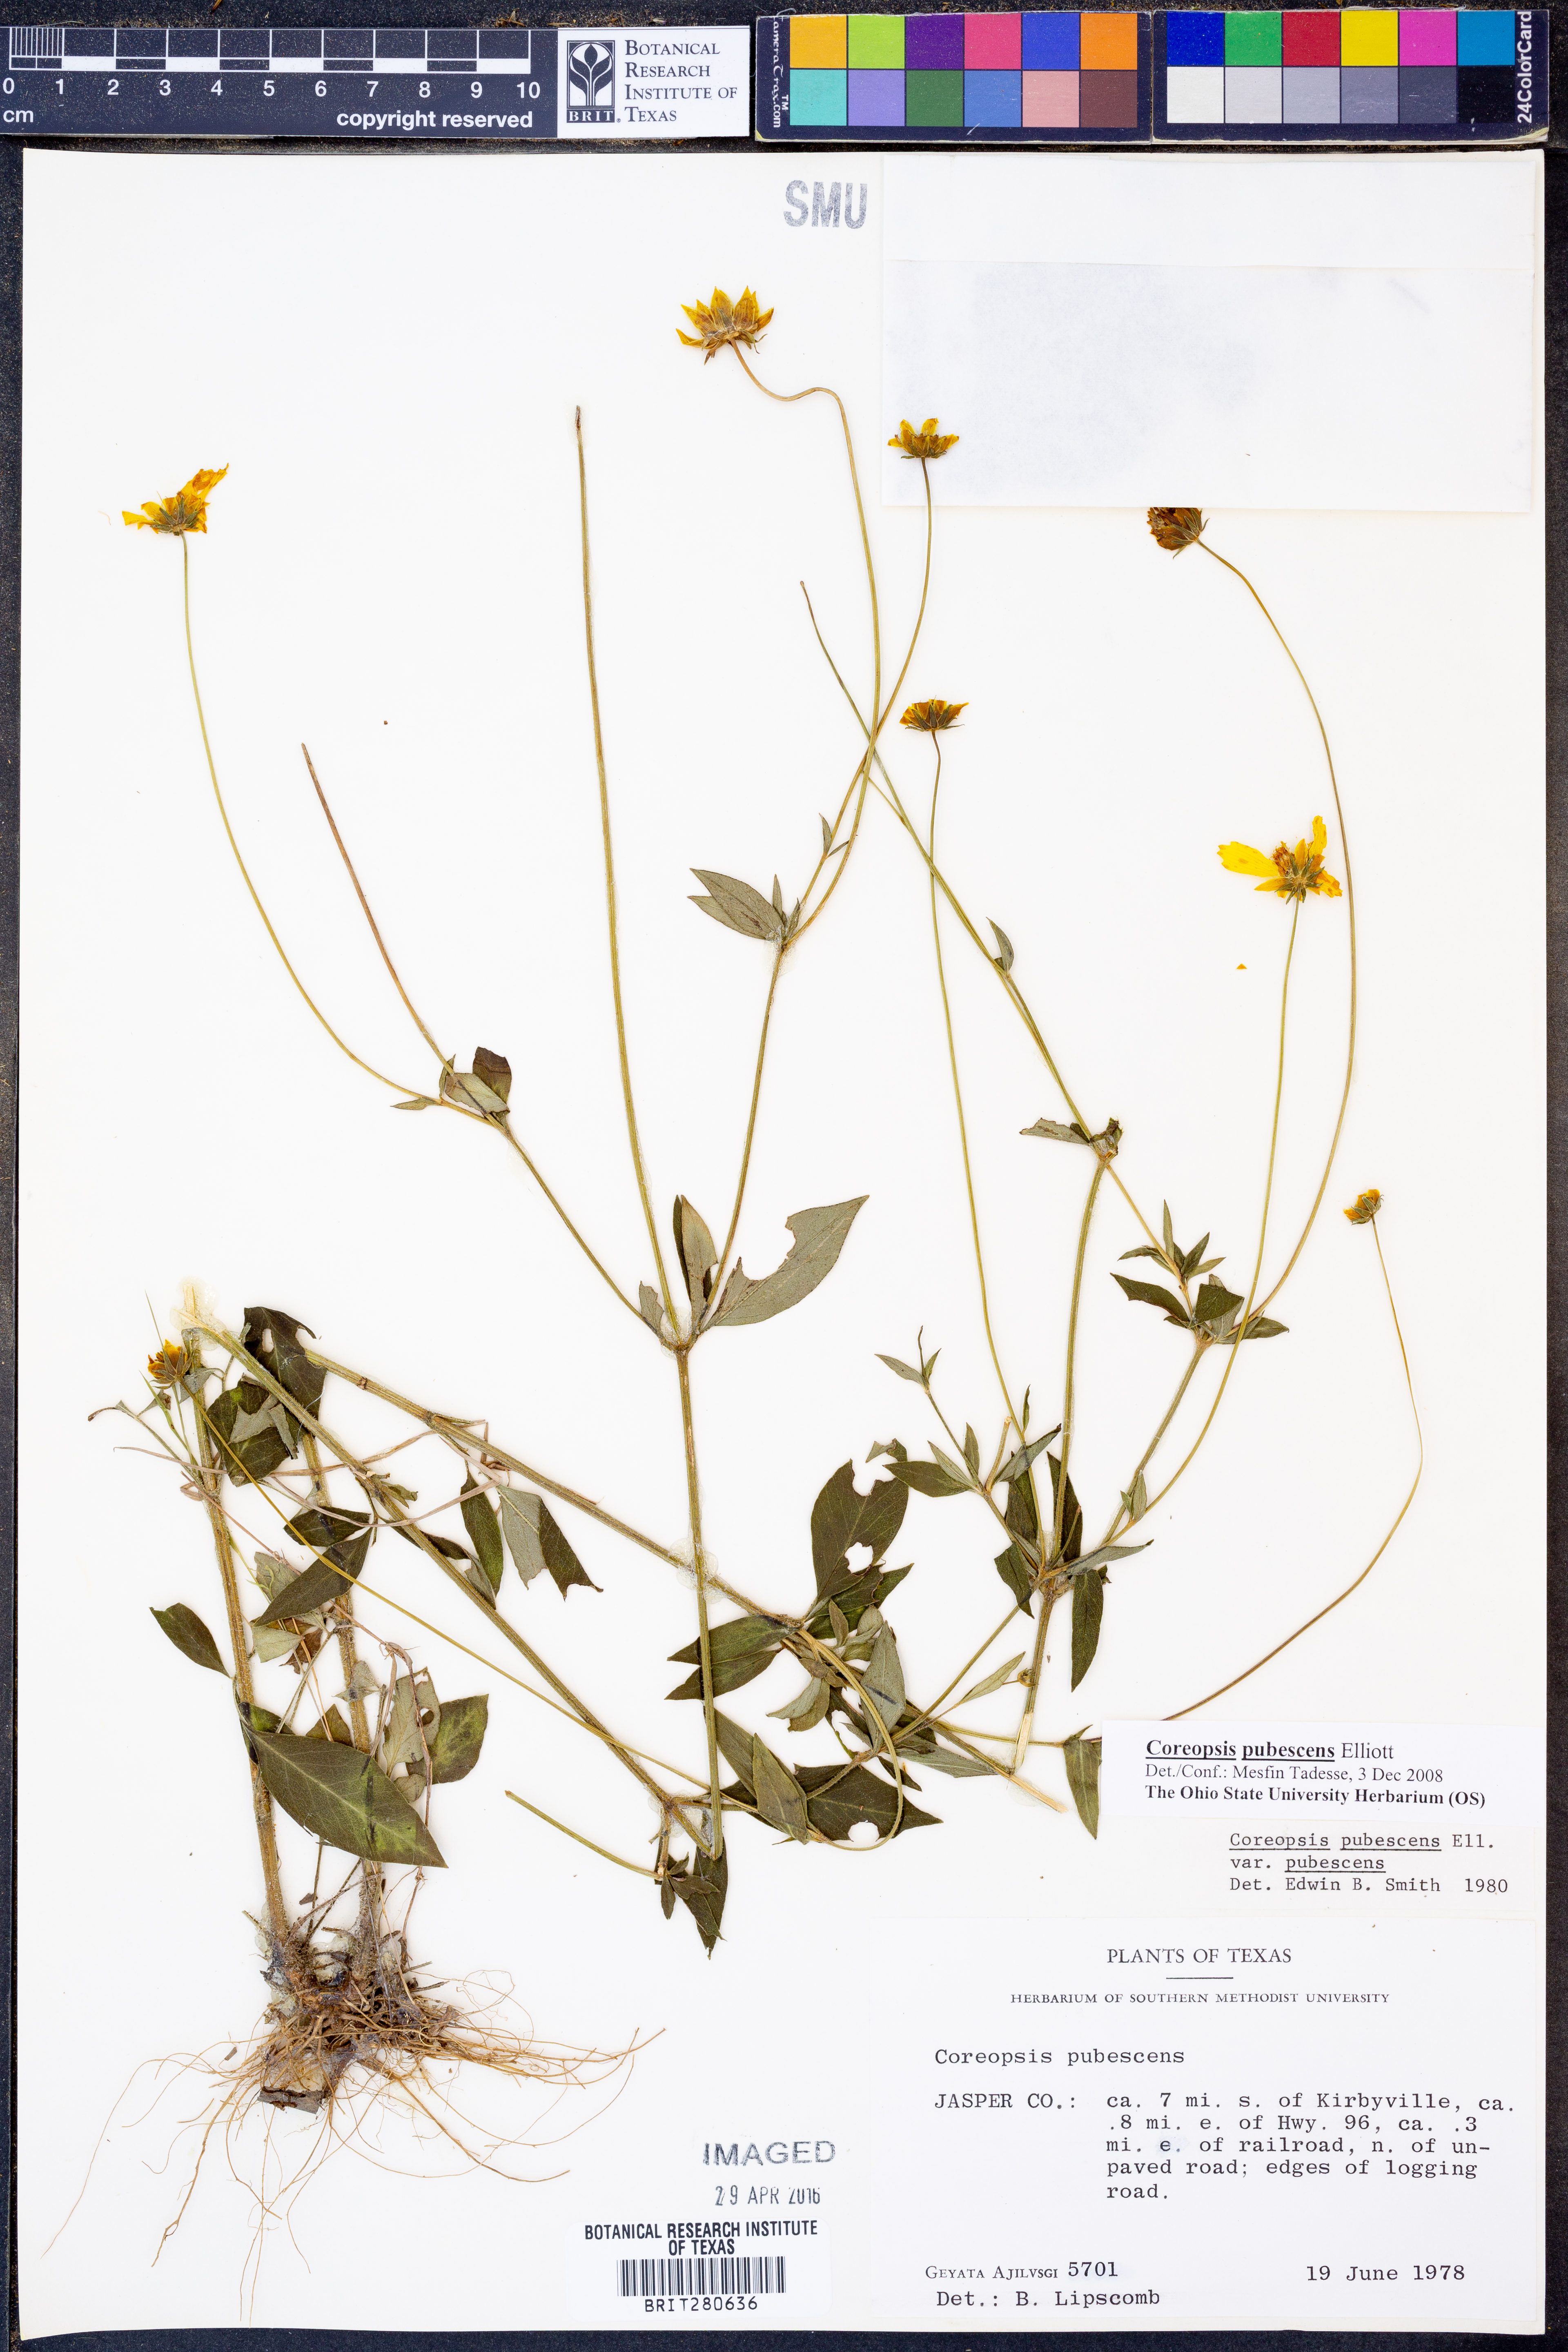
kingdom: Plantae
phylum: Tracheophyta
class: Magnoliopsida
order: Asterales
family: Asteraceae
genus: Coreopsis
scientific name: Coreopsis pubescens
